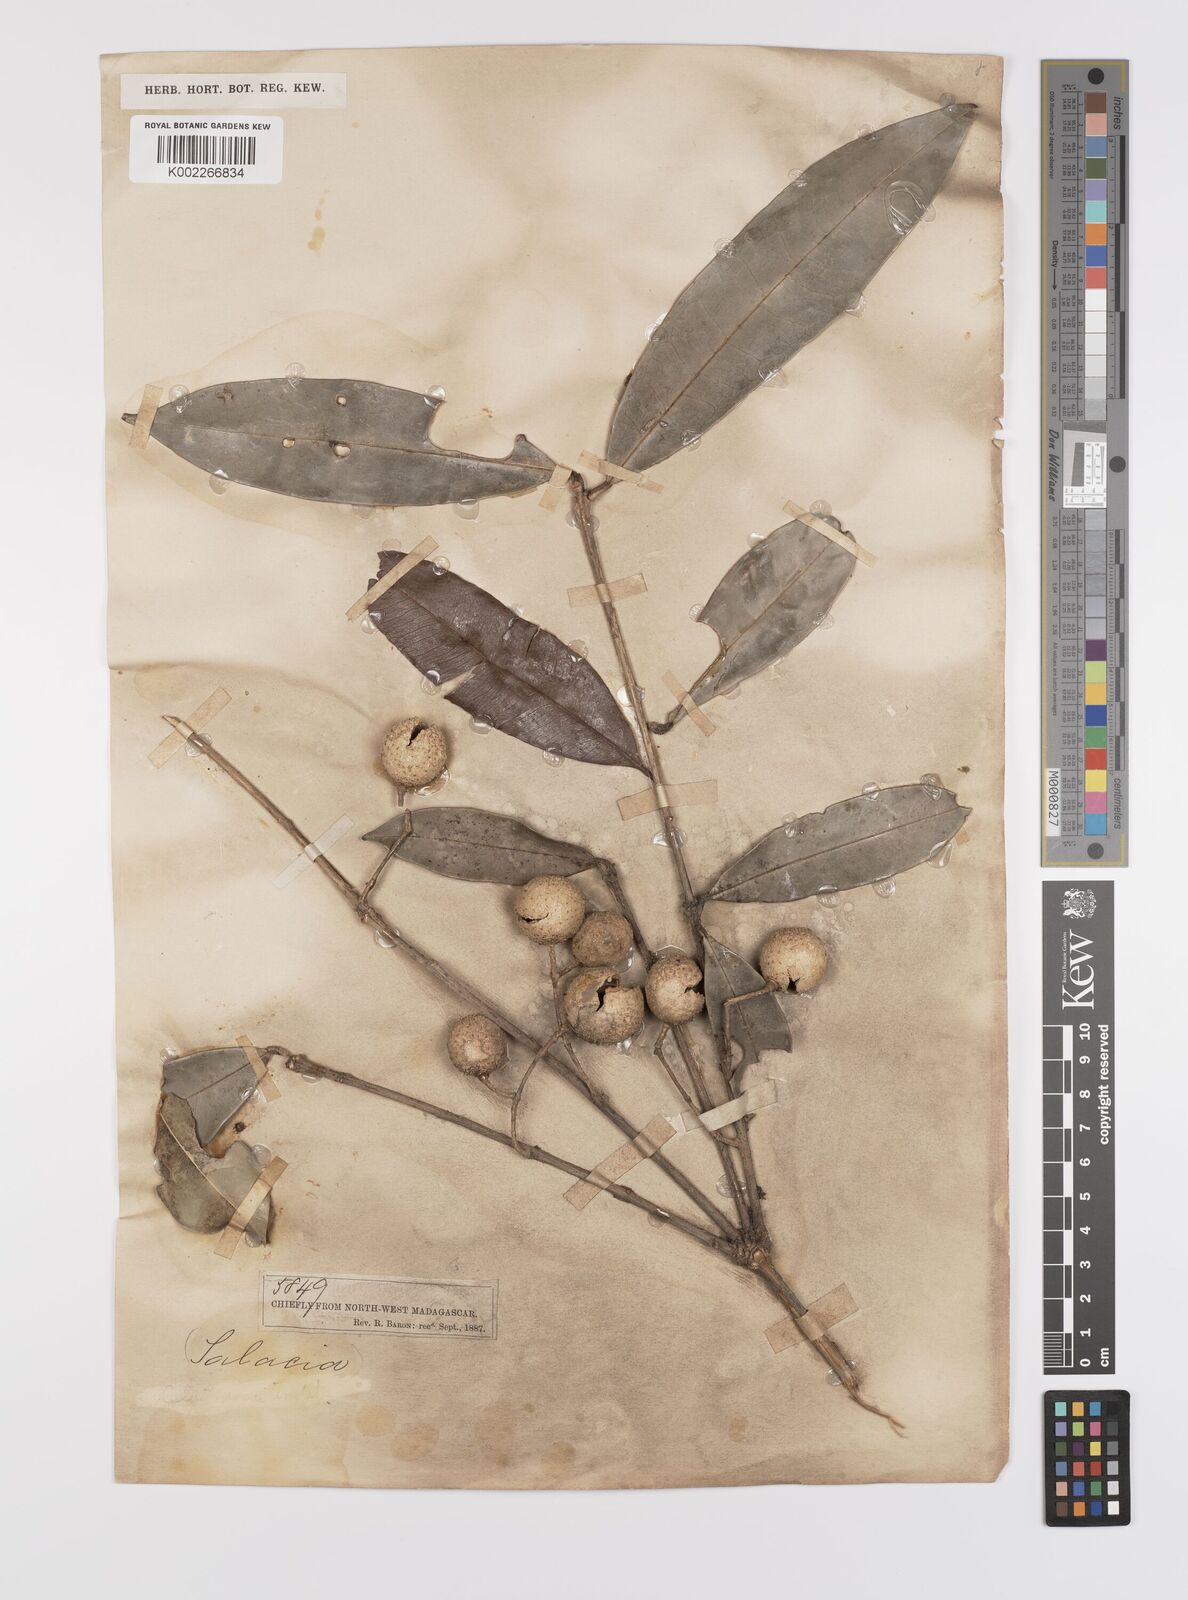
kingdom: Plantae
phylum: Tracheophyta
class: Magnoliopsida
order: Celastrales
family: Celastraceae
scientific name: Celastraceae
